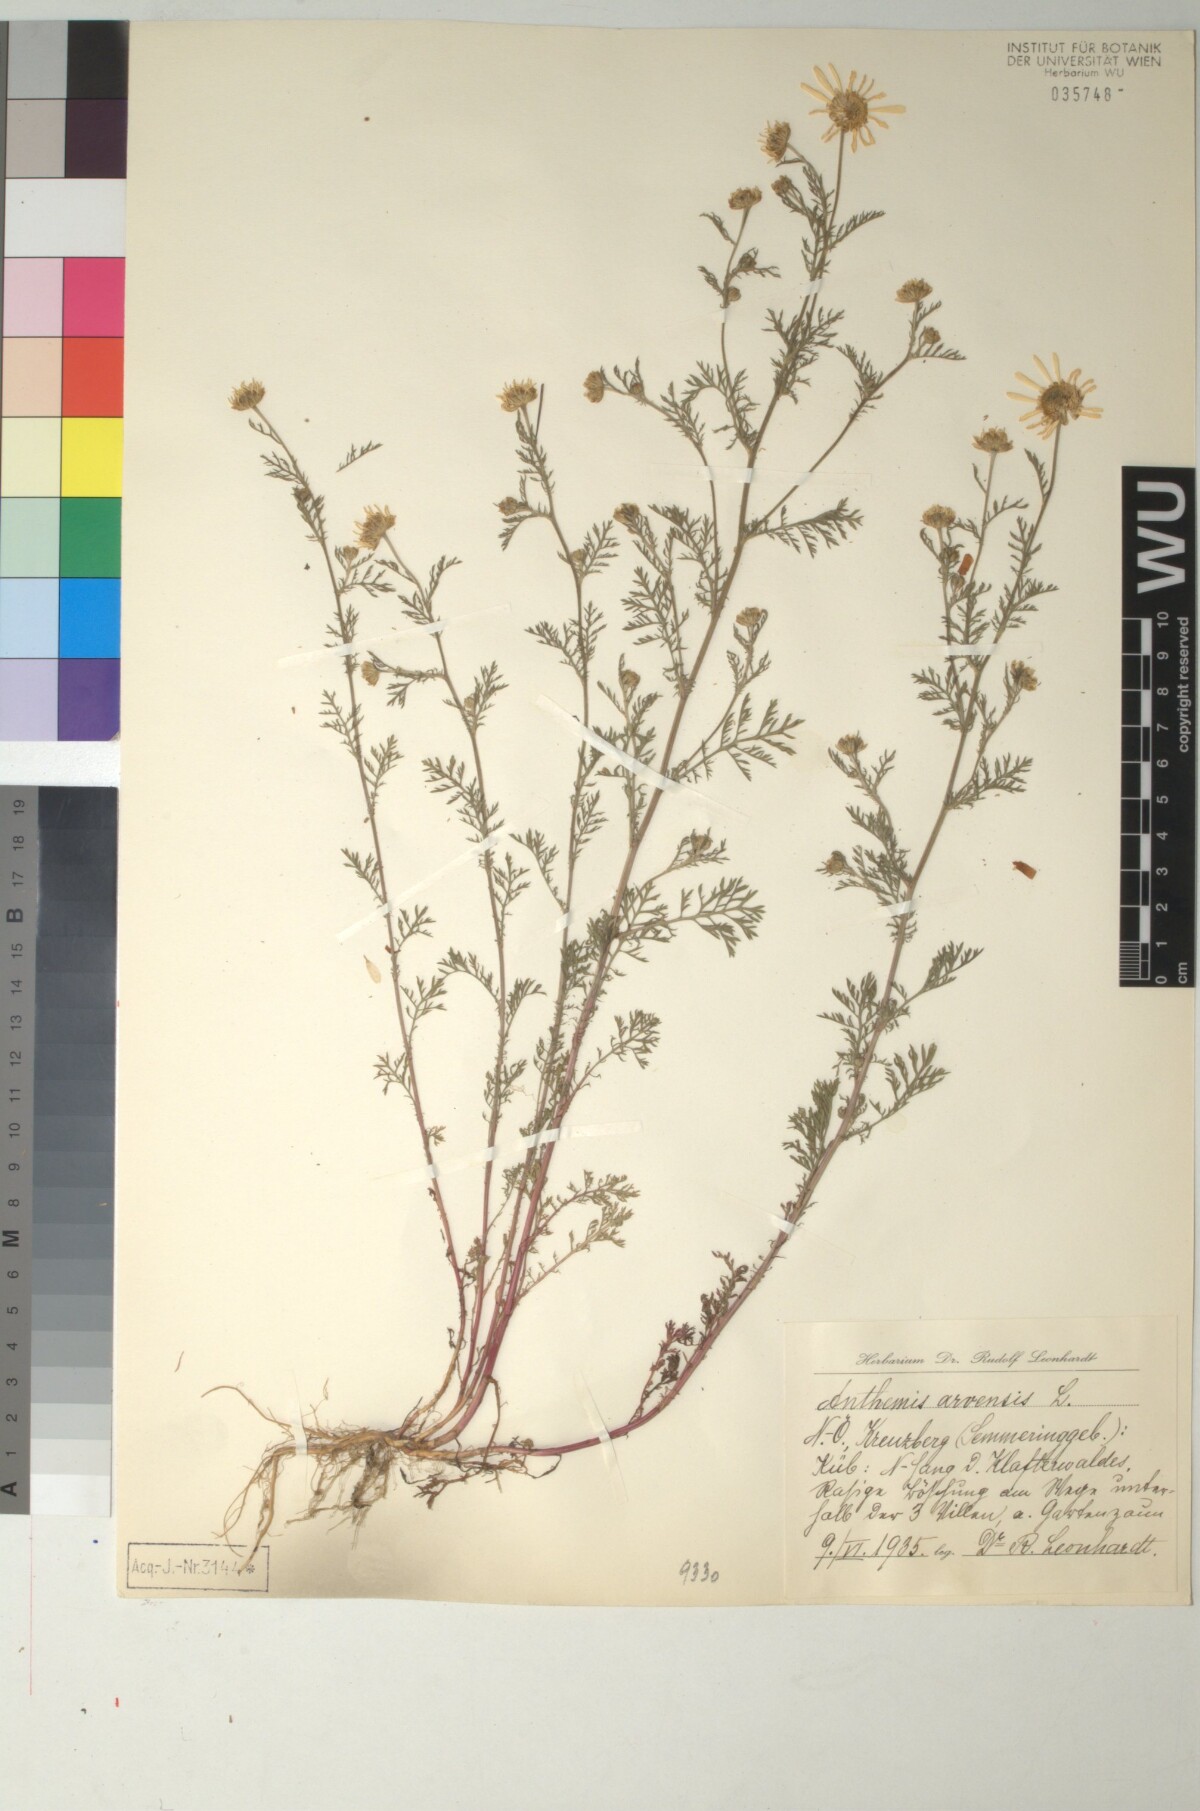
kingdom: Plantae
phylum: Tracheophyta
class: Magnoliopsida
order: Asterales
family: Asteraceae
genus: Anthemis
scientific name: Anthemis arvensis
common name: Corn chamomile
